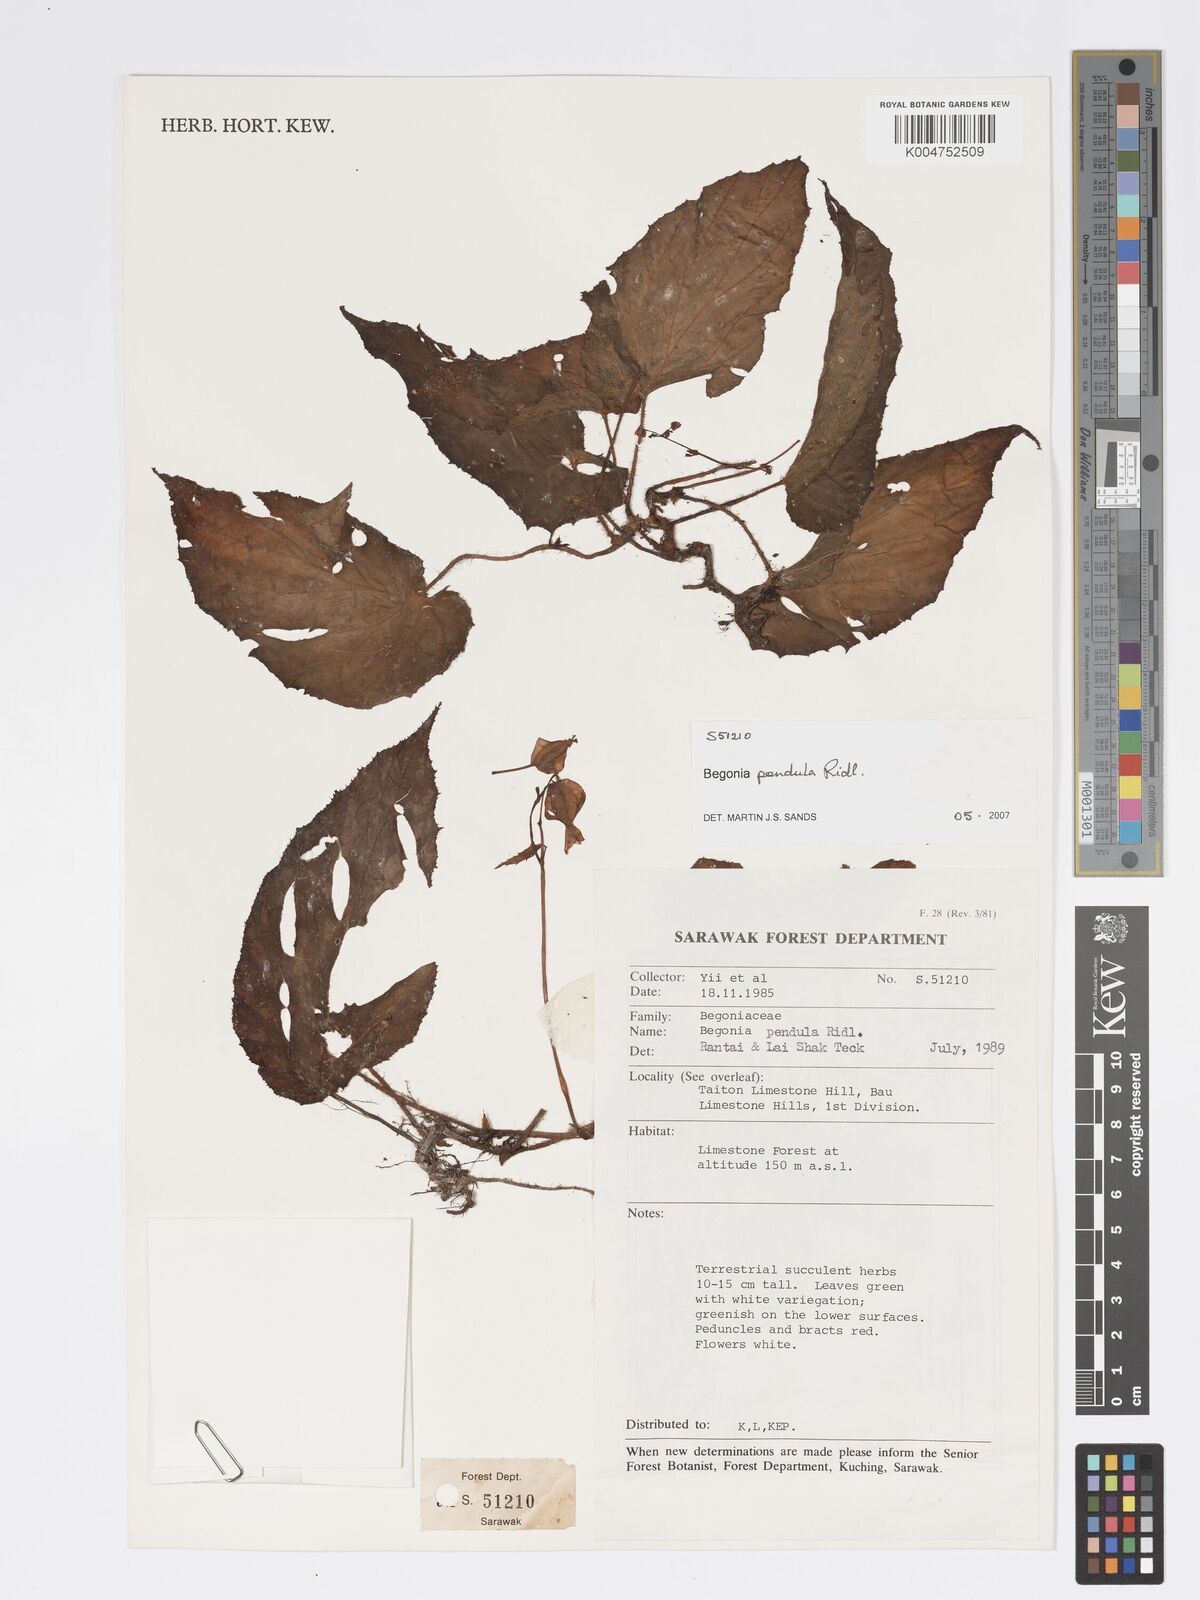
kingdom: Plantae
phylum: Tracheophyta
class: Magnoliopsida
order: Cucurbitales
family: Begoniaceae
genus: Begonia
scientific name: Begonia
